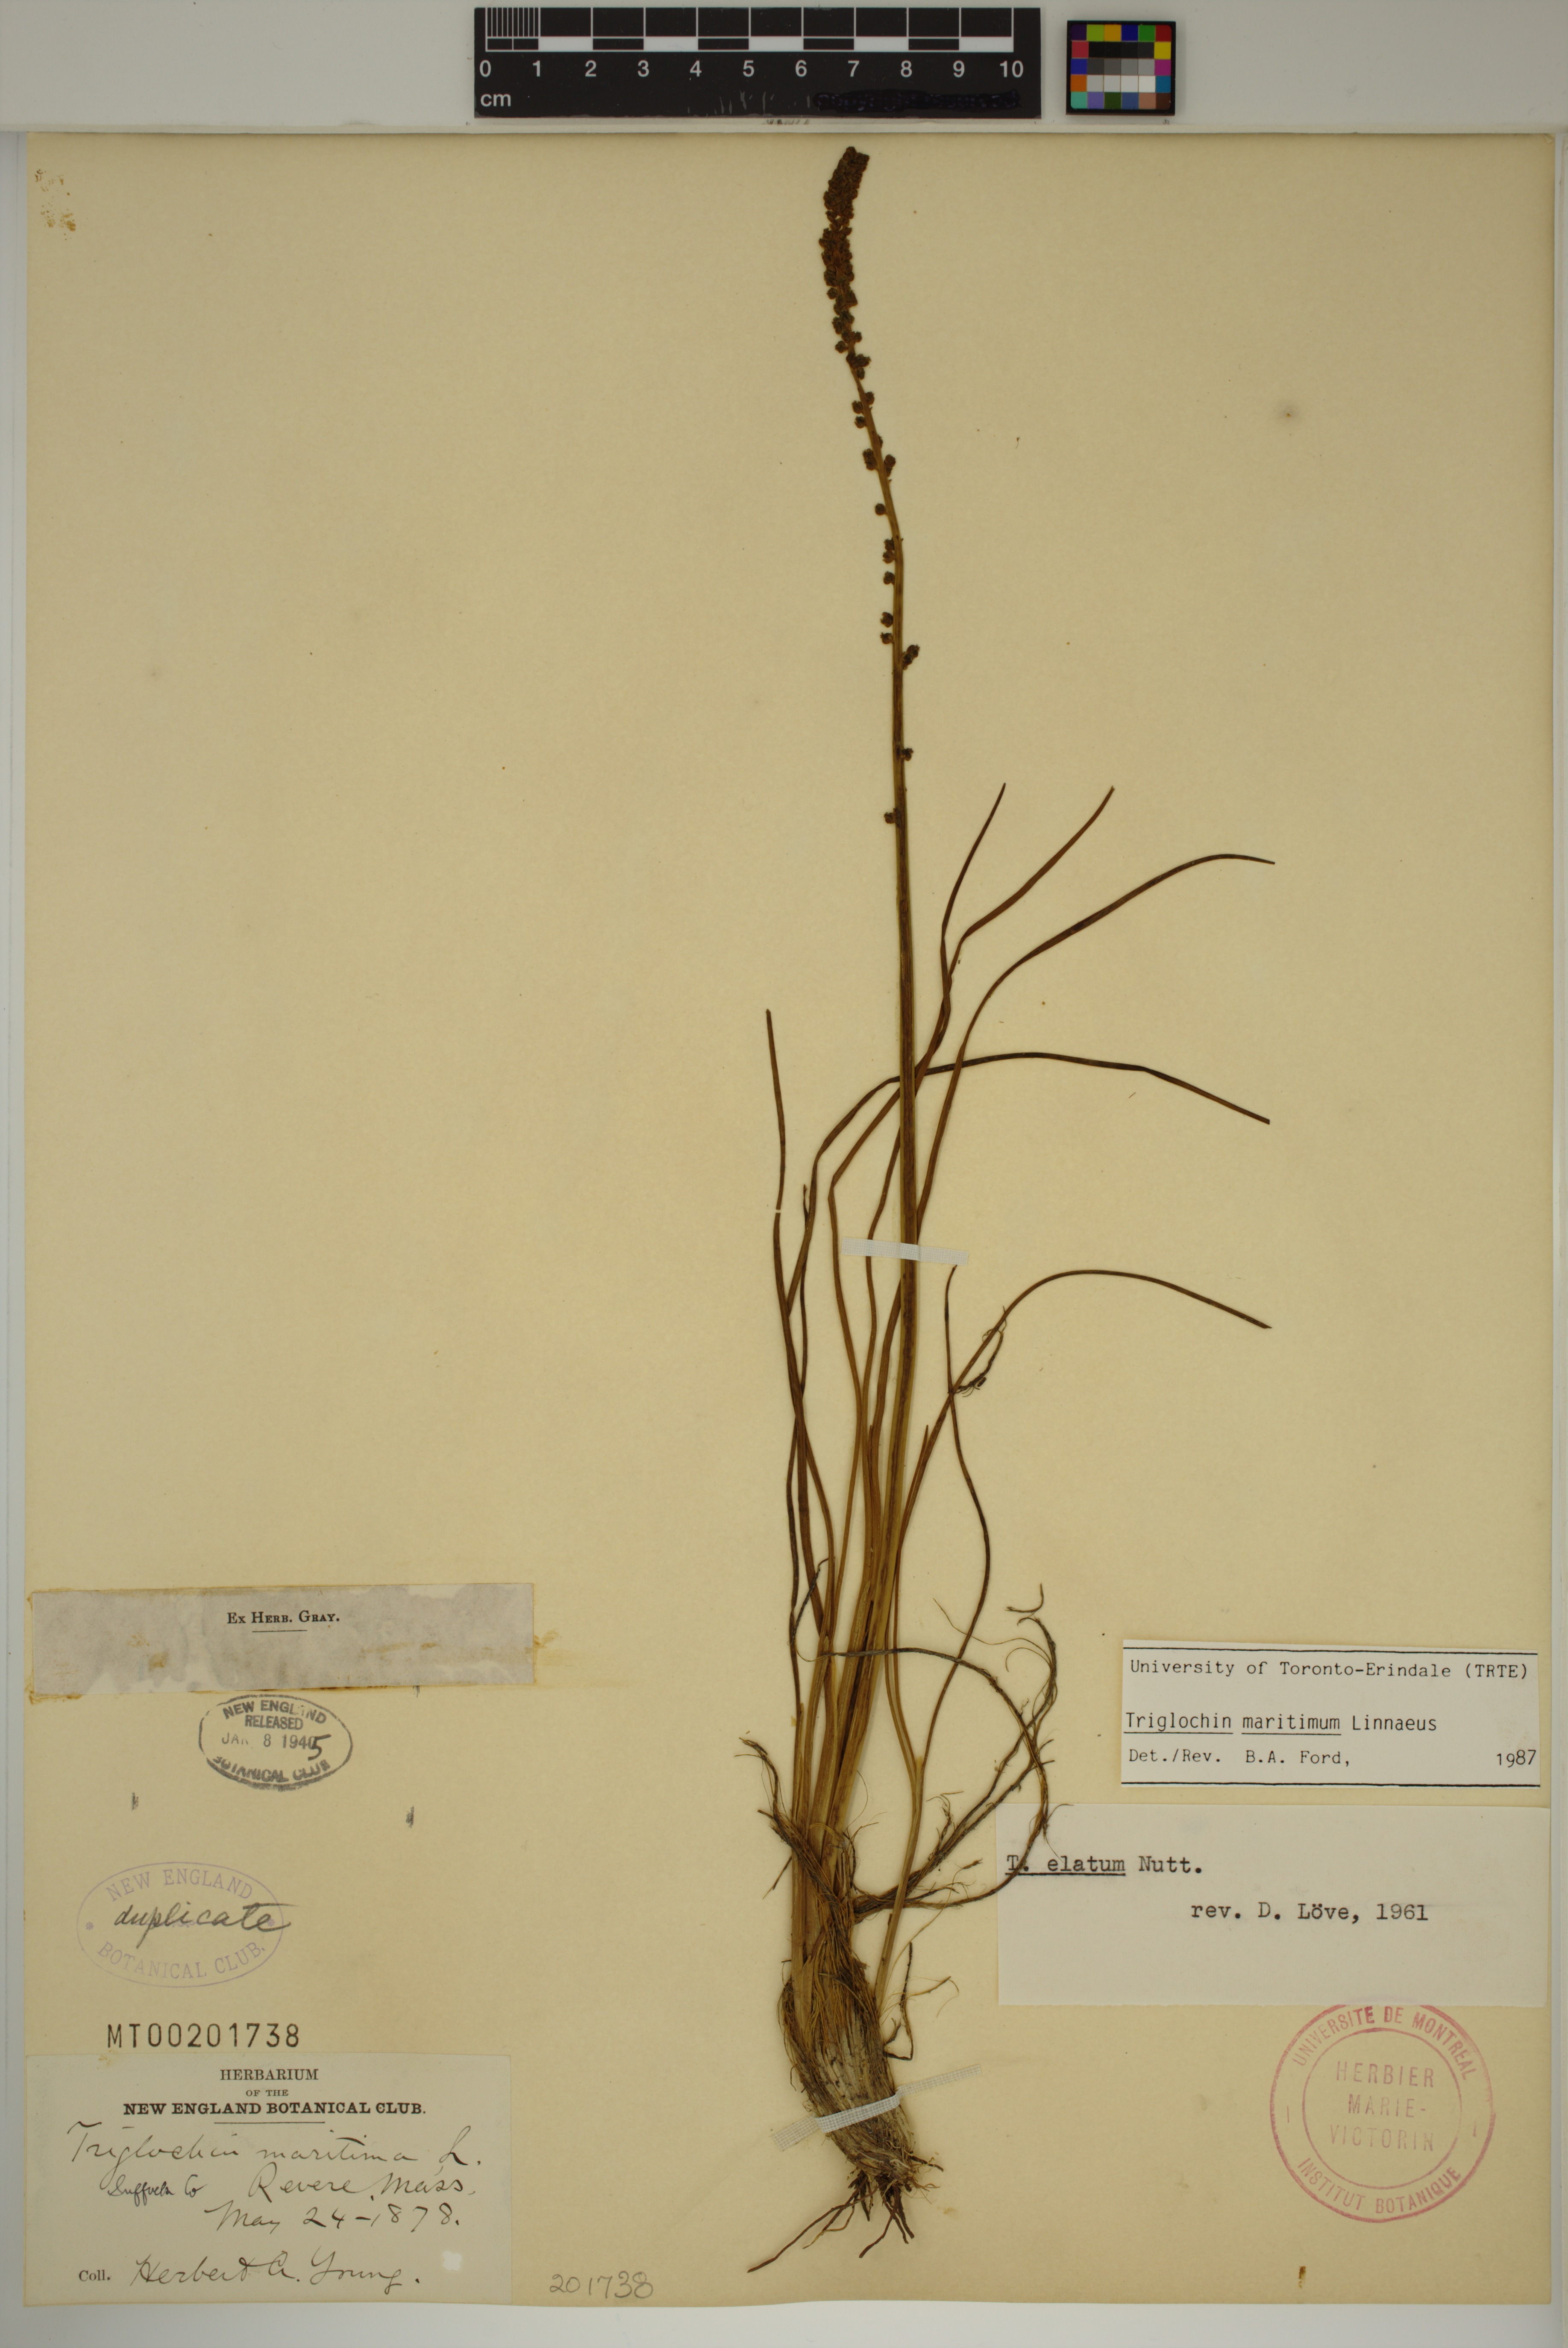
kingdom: Plantae
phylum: Tracheophyta
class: Liliopsida
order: Alismatales
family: Juncaginaceae
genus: Triglochin
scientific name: Triglochin maritima
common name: Sea arrowgrass
